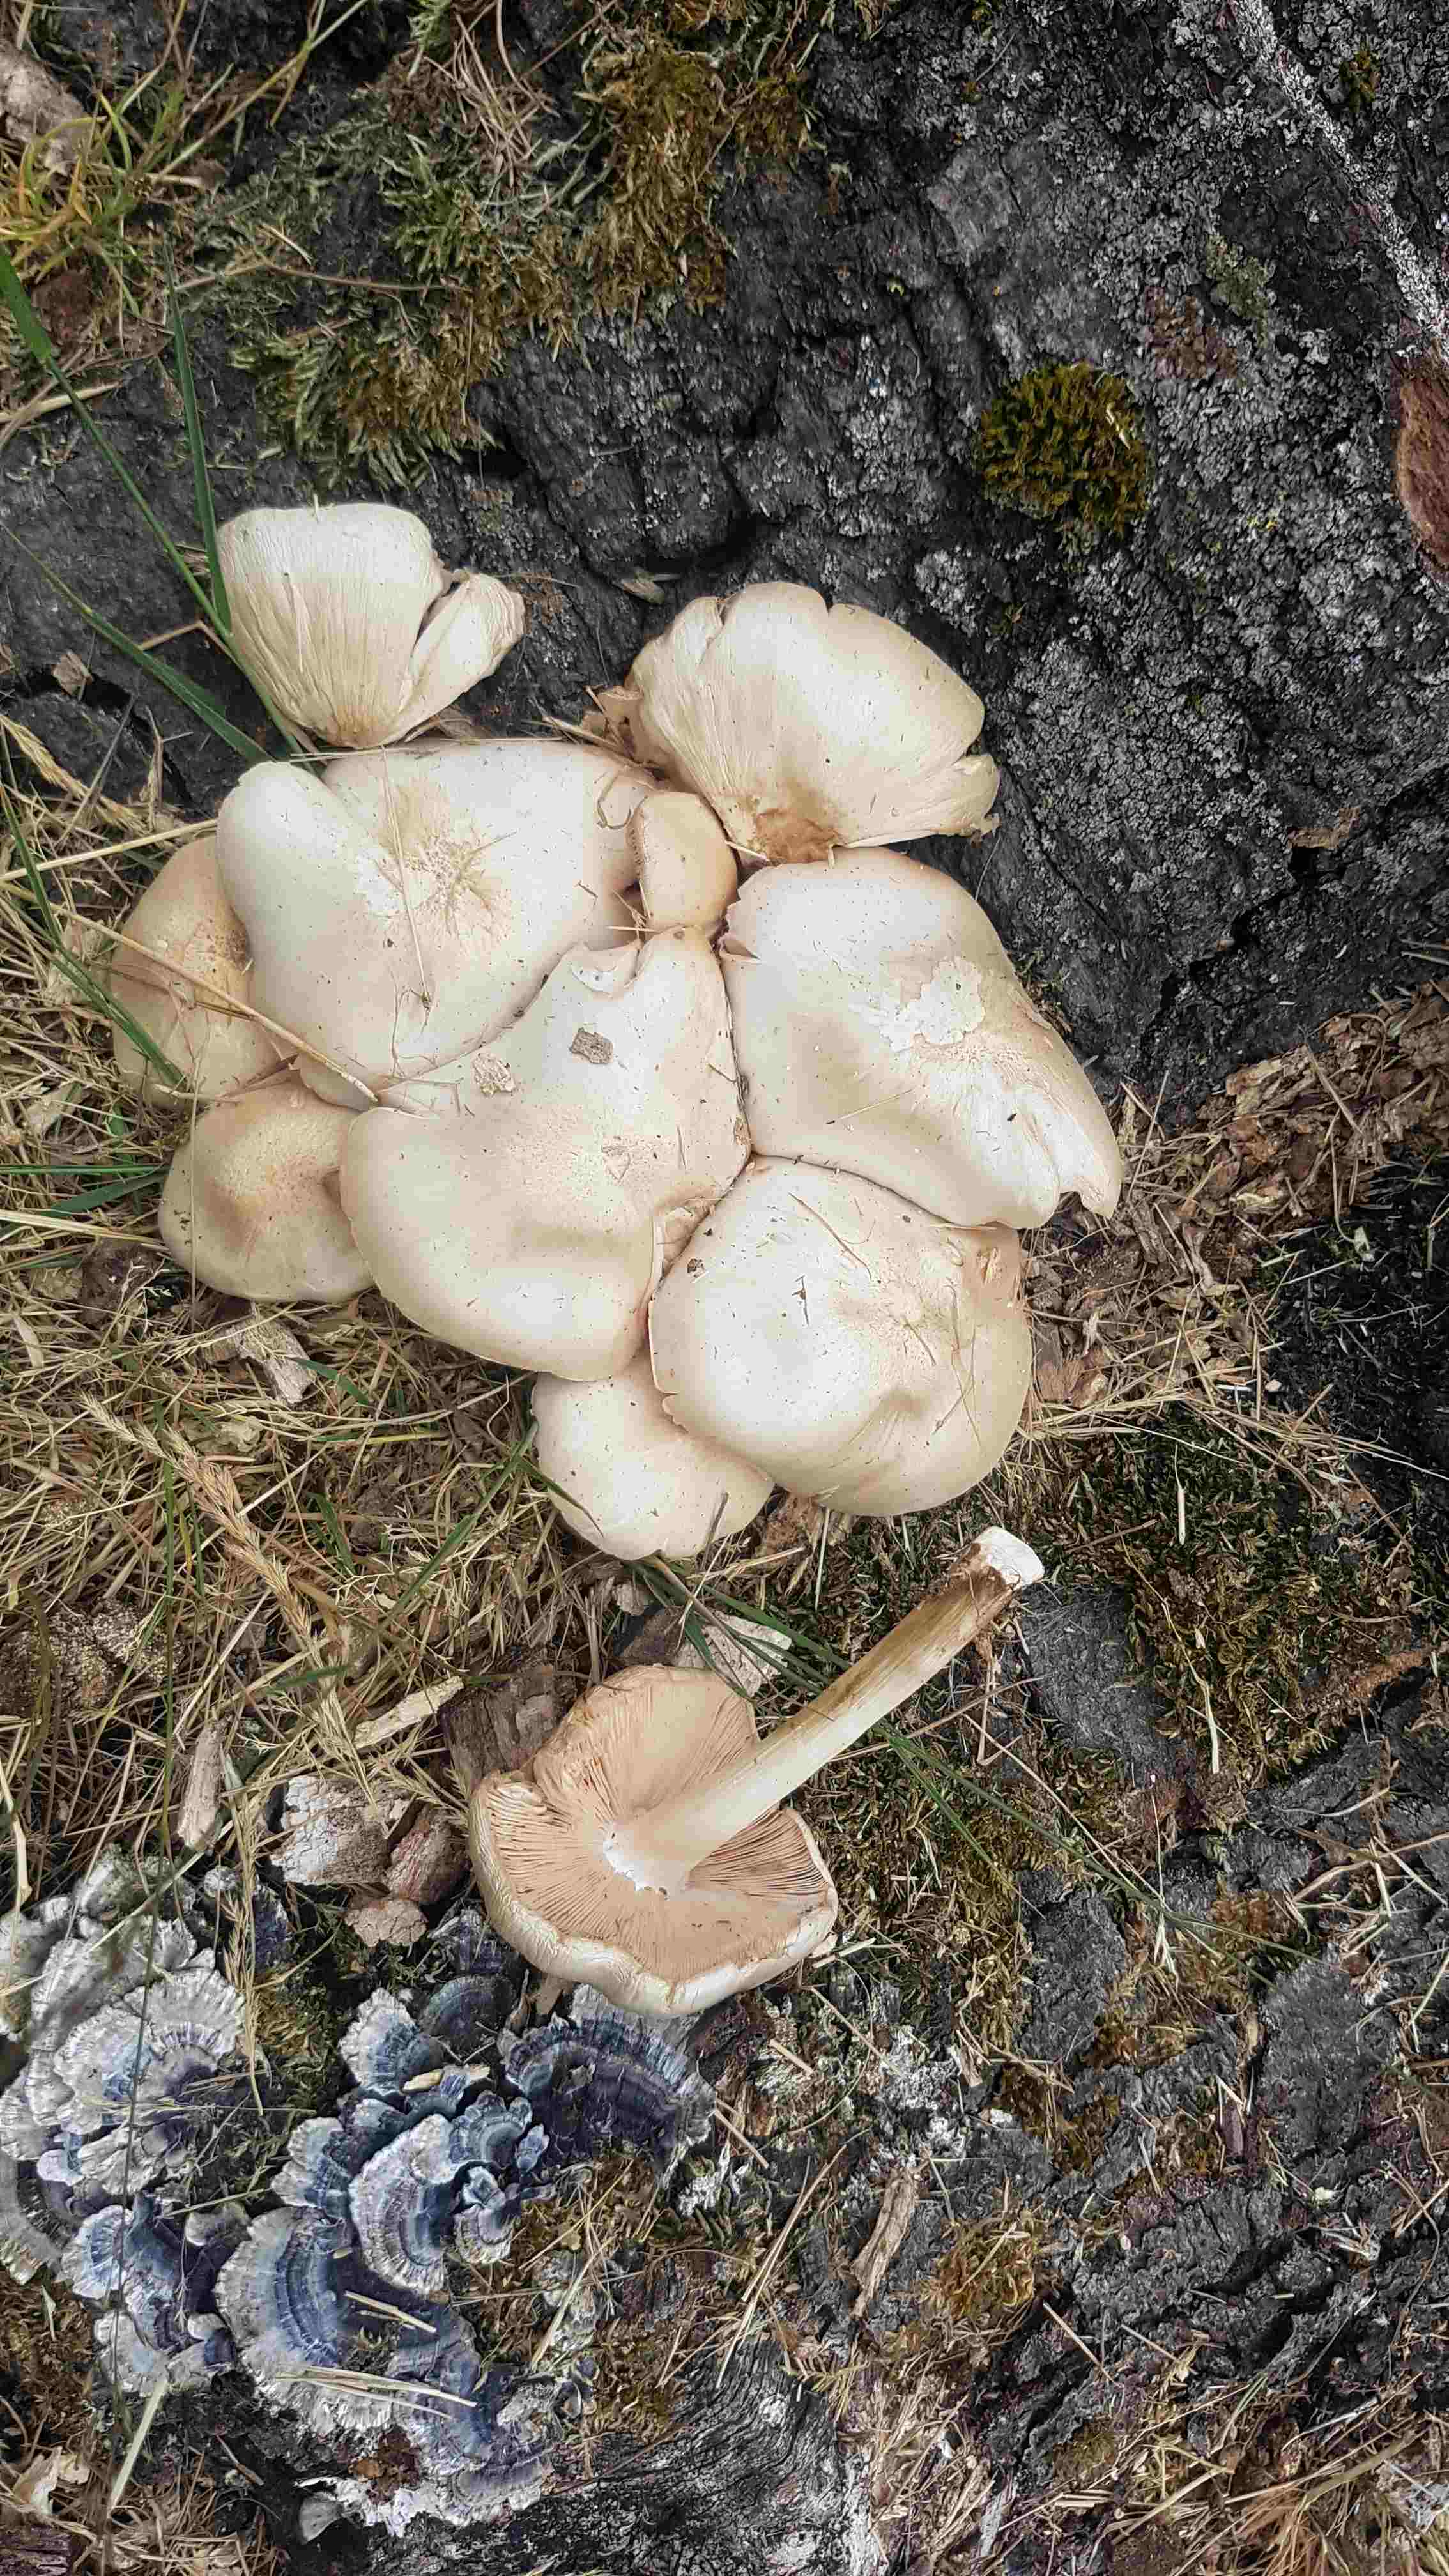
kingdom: Fungi
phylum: Basidiomycota
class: Agaricomycetes
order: Agaricales
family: Pluteaceae
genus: Pluteus
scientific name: Pluteus
